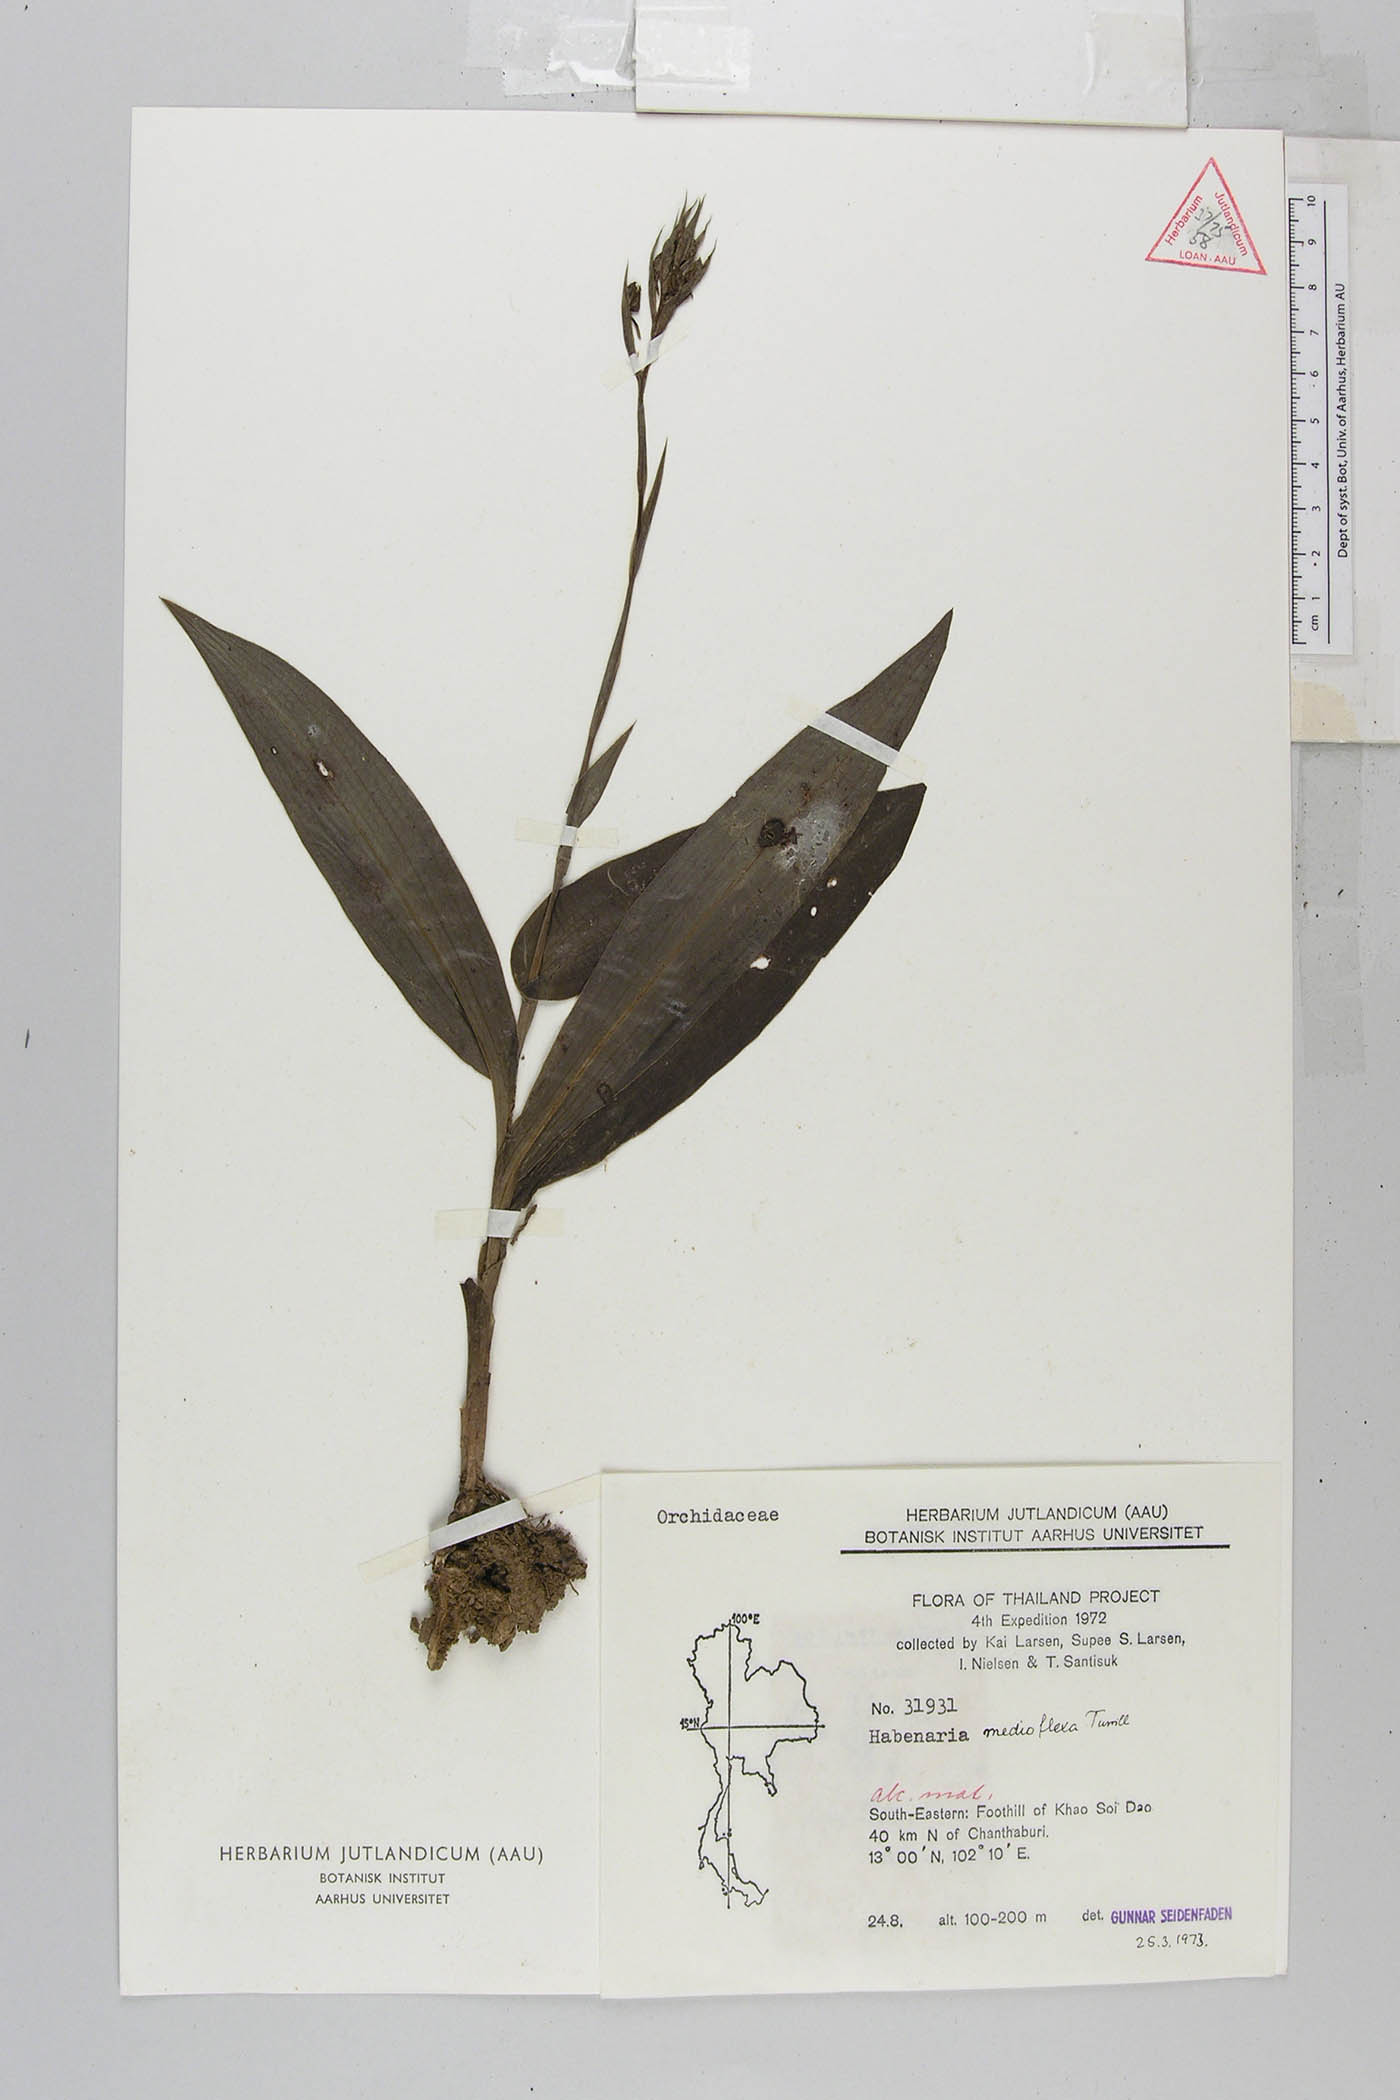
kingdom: Plantae
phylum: Tracheophyta
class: Liliopsida
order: Asparagales
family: Orchidaceae
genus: Habenaria
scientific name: Habenaria medioflexa
